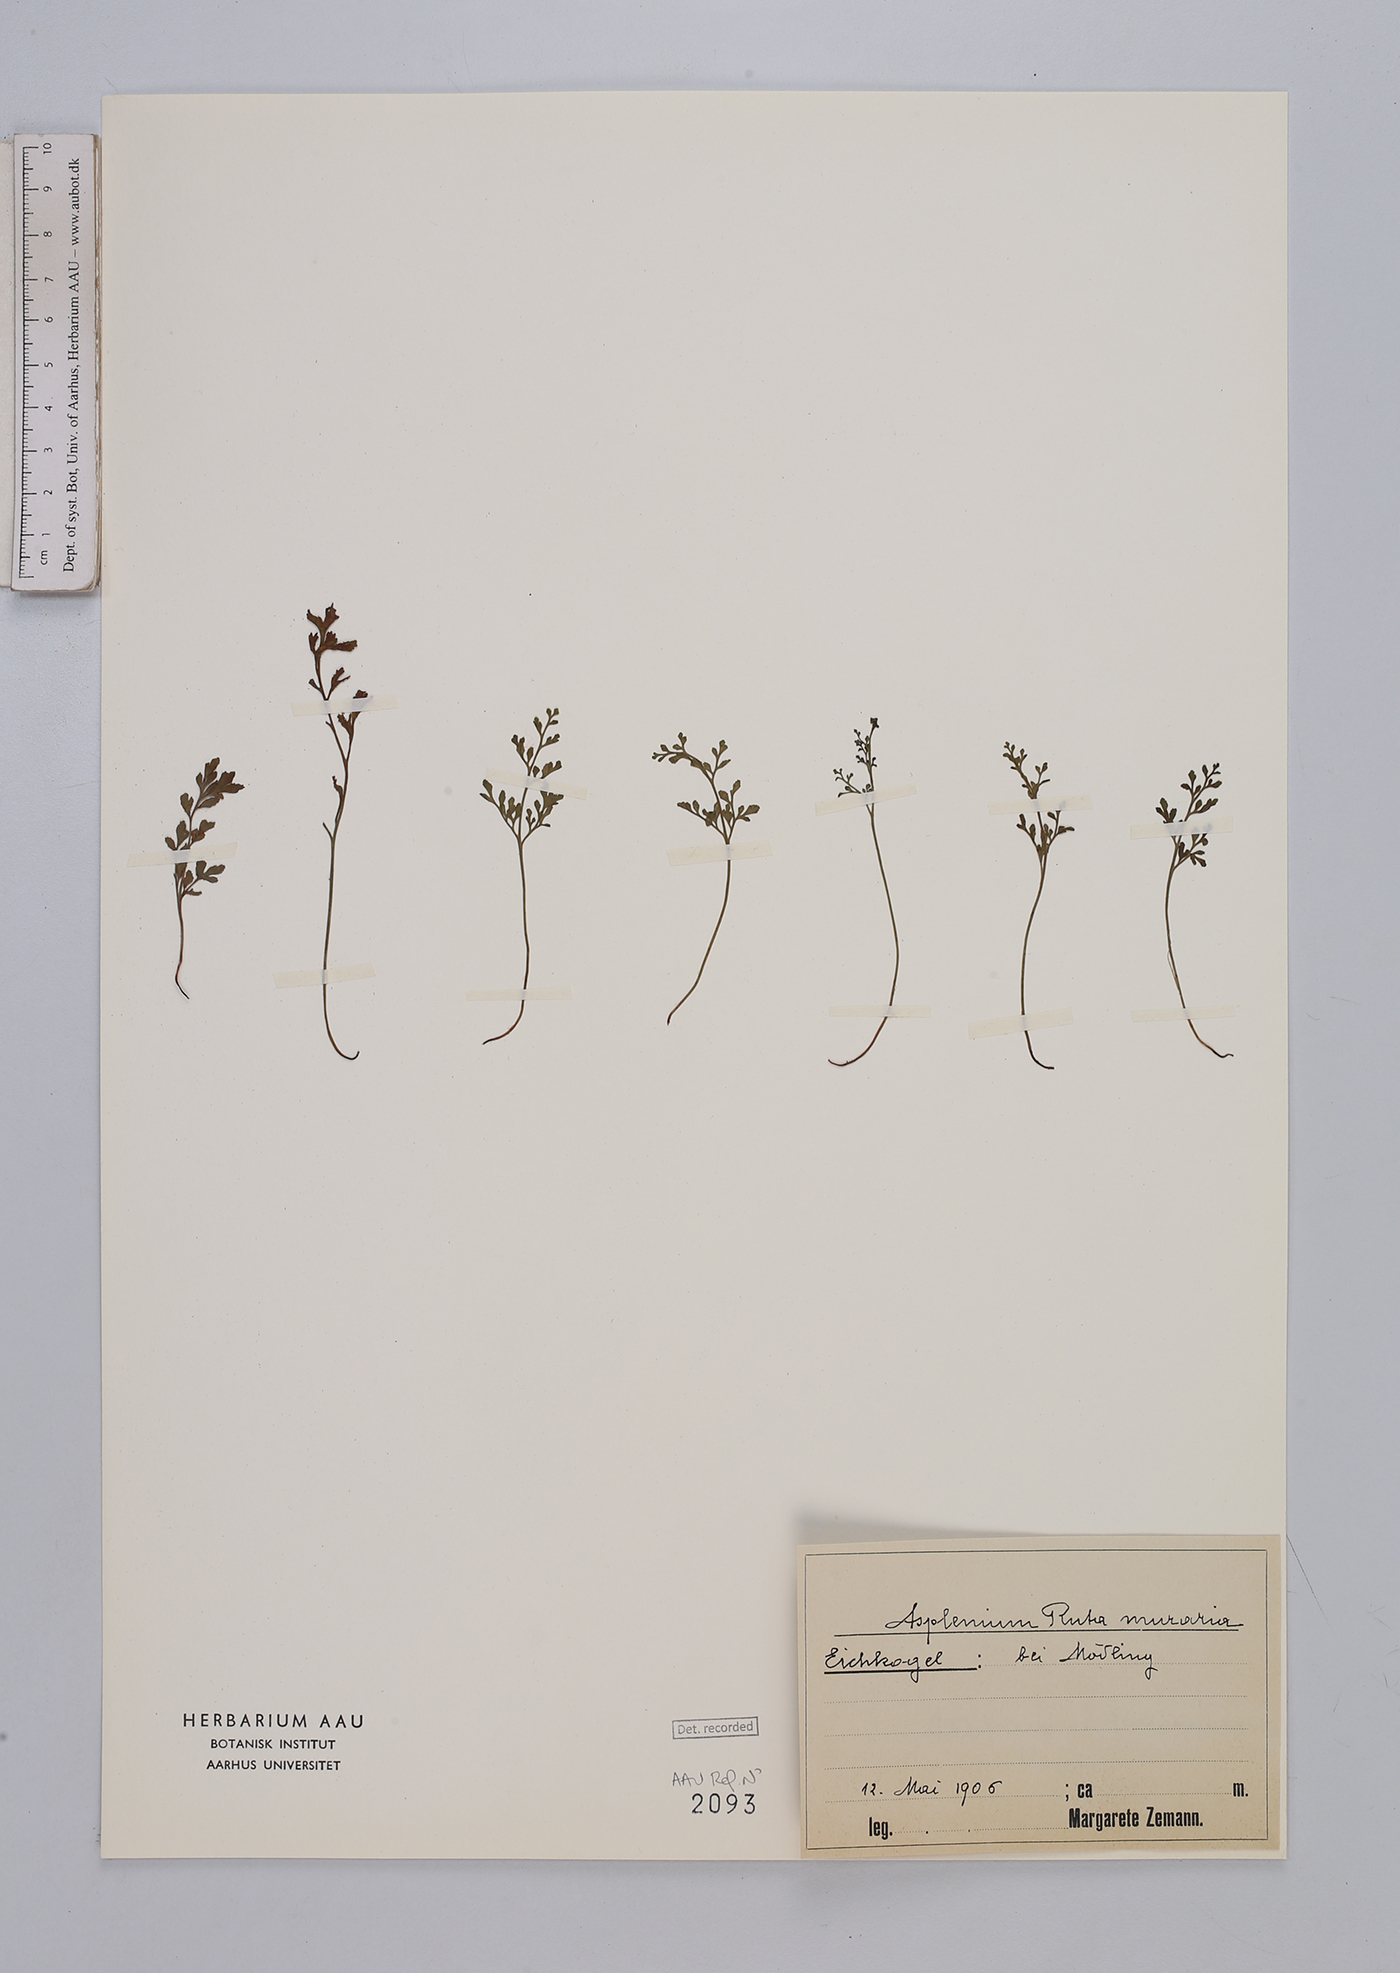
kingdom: Plantae
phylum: Tracheophyta
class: Polypodiopsida
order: Polypodiales
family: Aspleniaceae
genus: Asplenium
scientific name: Asplenium ruta-muraria
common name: Wall-rue
